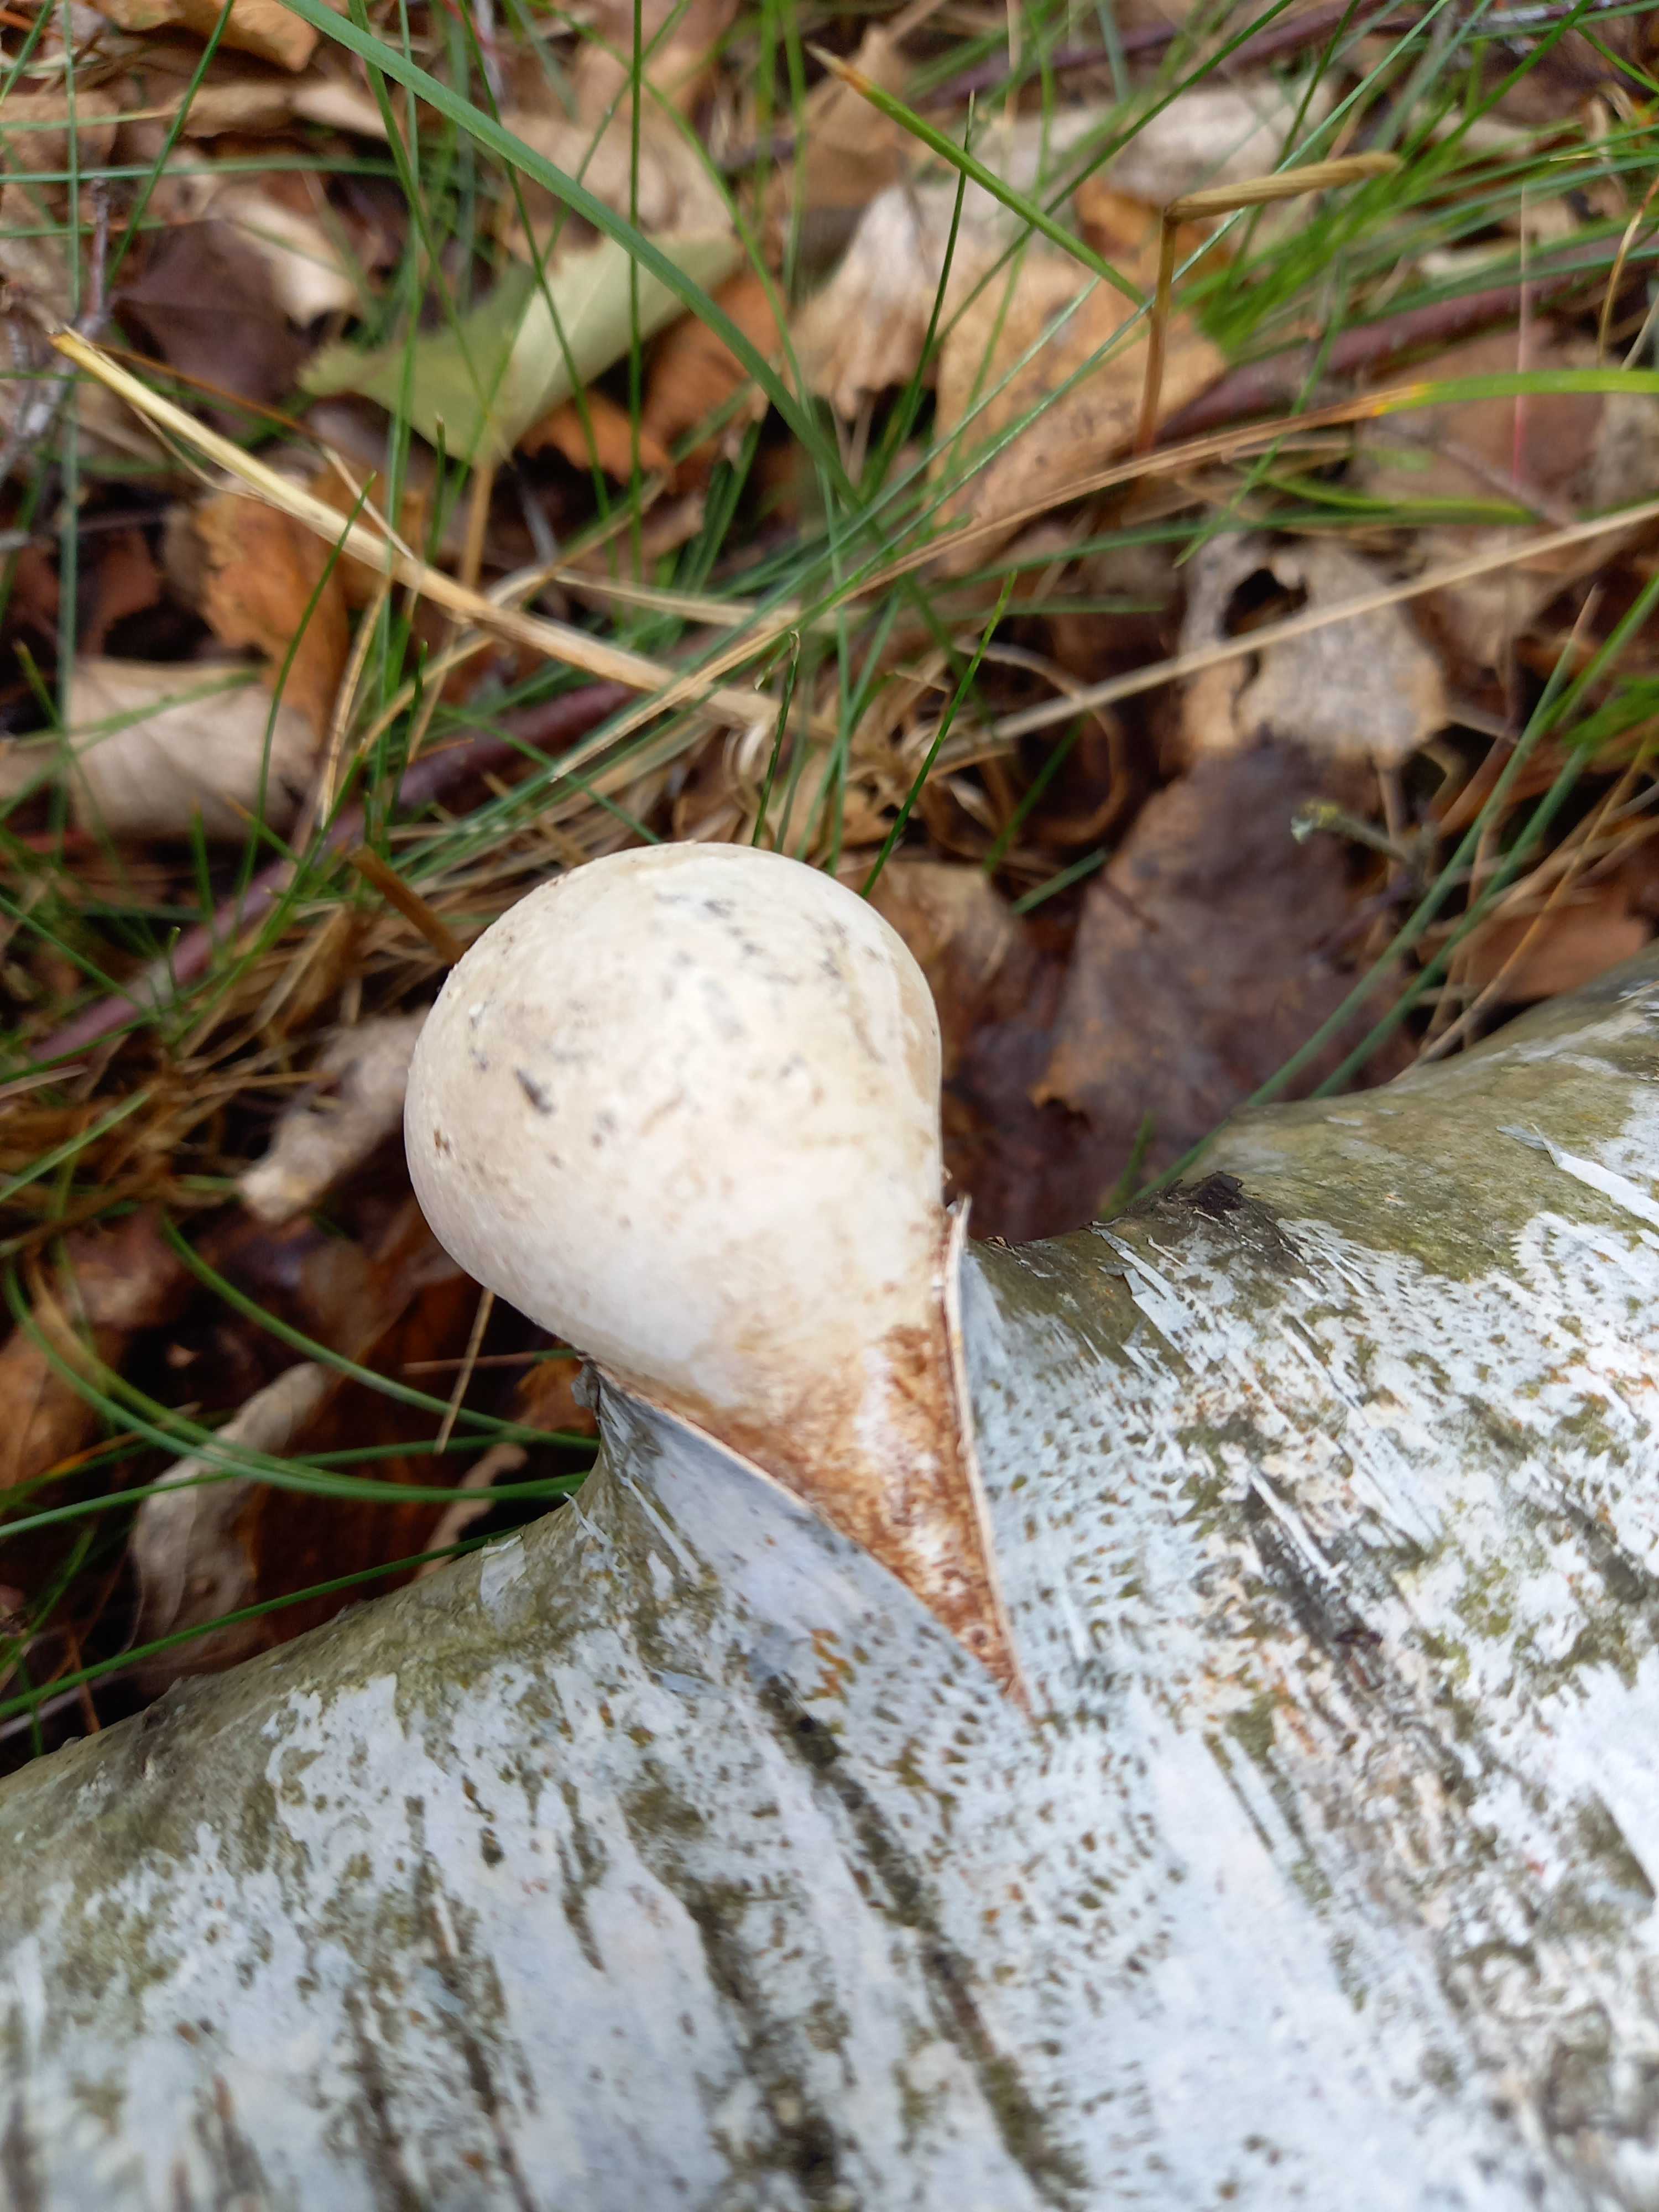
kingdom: Fungi
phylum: Basidiomycota
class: Agaricomycetes
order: Polyporales
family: Fomitopsidaceae
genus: Fomitopsis
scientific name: Fomitopsis betulina
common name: birkeporesvamp
